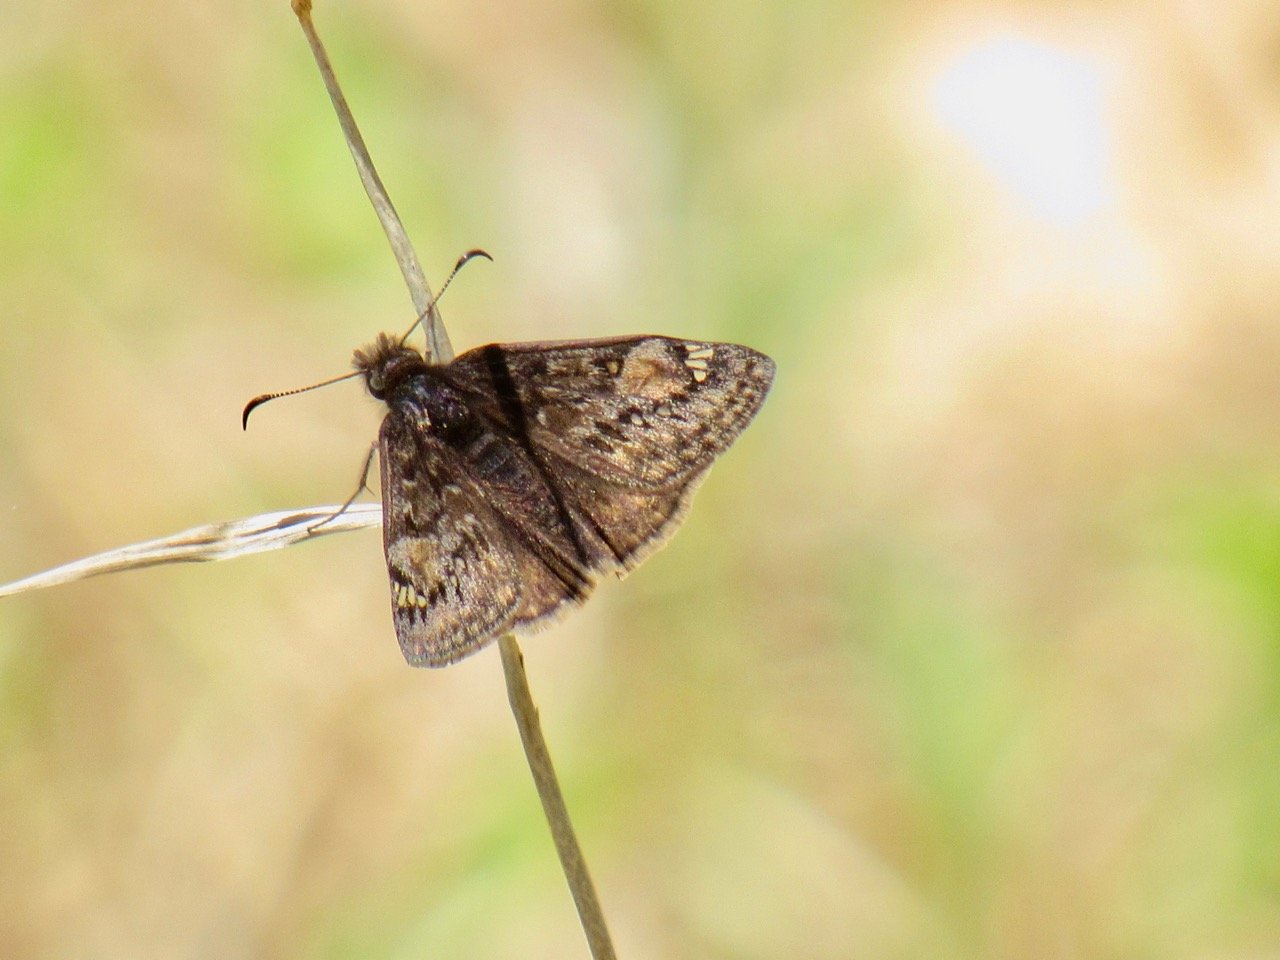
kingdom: Animalia
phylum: Arthropoda
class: Insecta
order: Lepidoptera
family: Hesperiidae
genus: Gesta
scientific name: Gesta
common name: Juvenal's Duskywing
